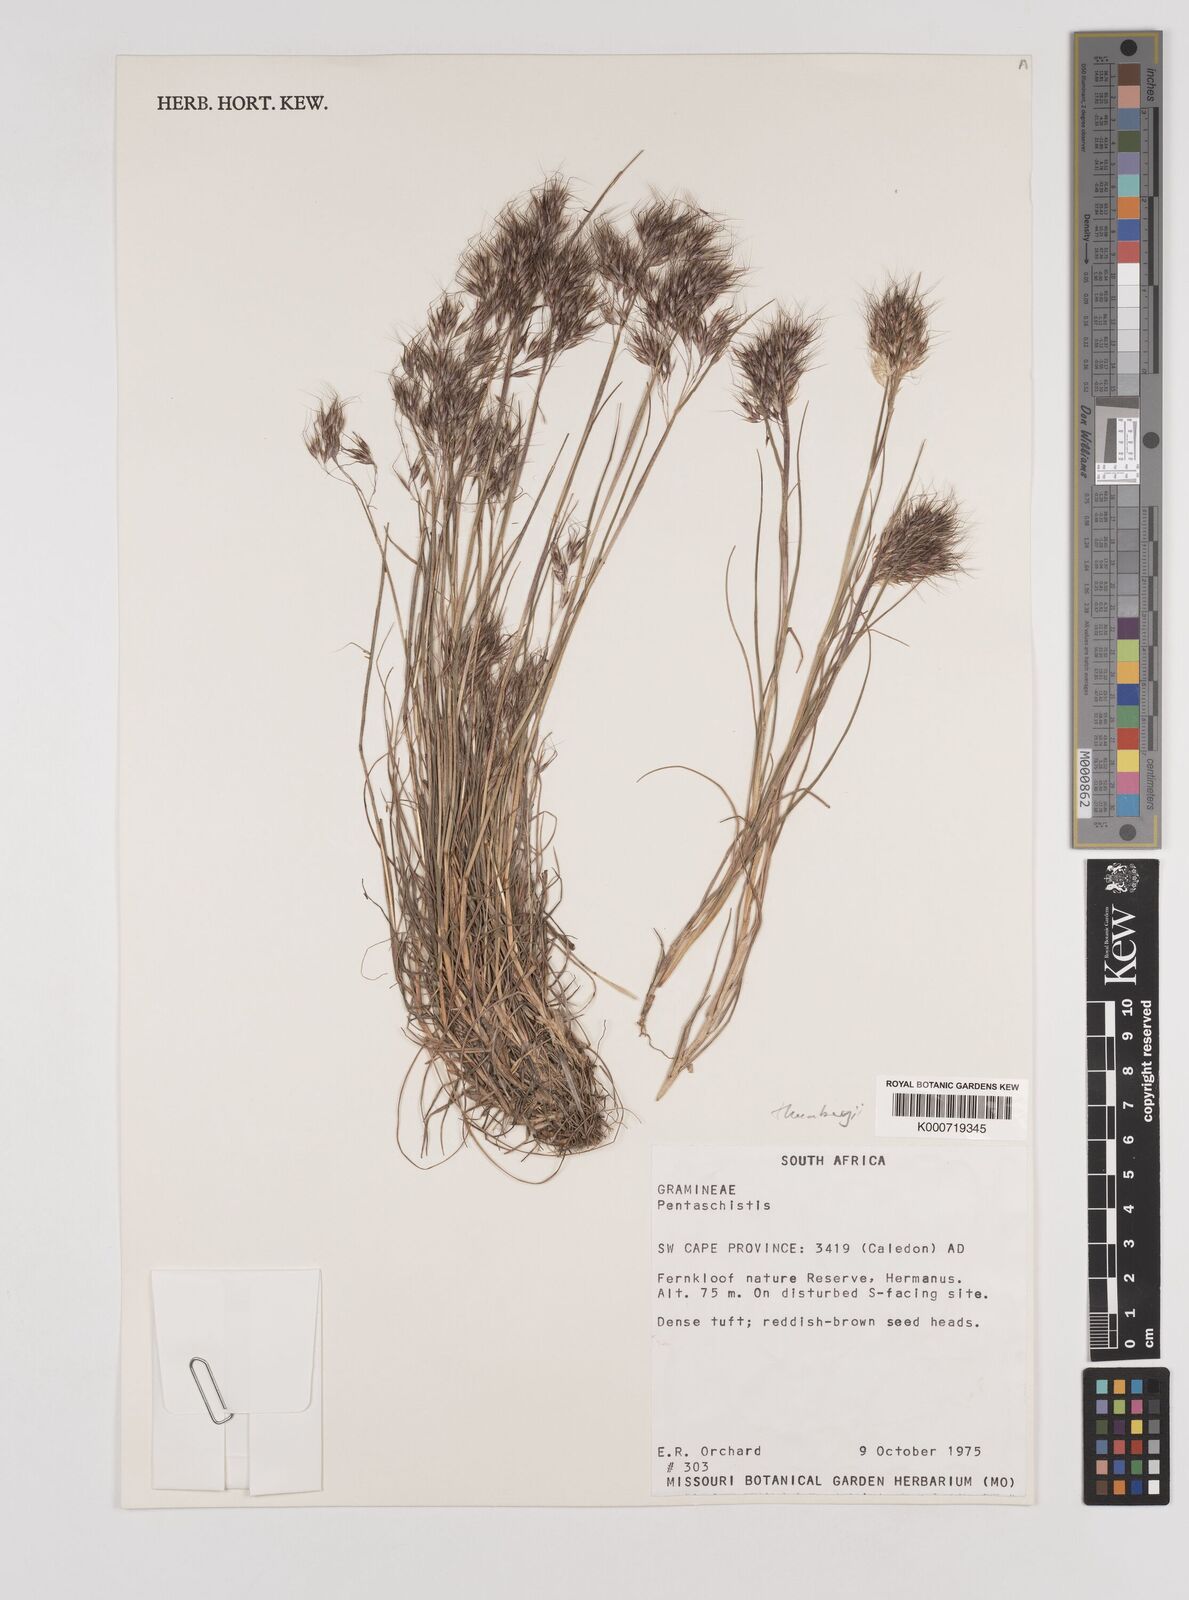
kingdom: Plantae
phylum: Tracheophyta
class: Liliopsida
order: Poales
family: Poaceae
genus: Pentameris
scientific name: Pentameris triseta
